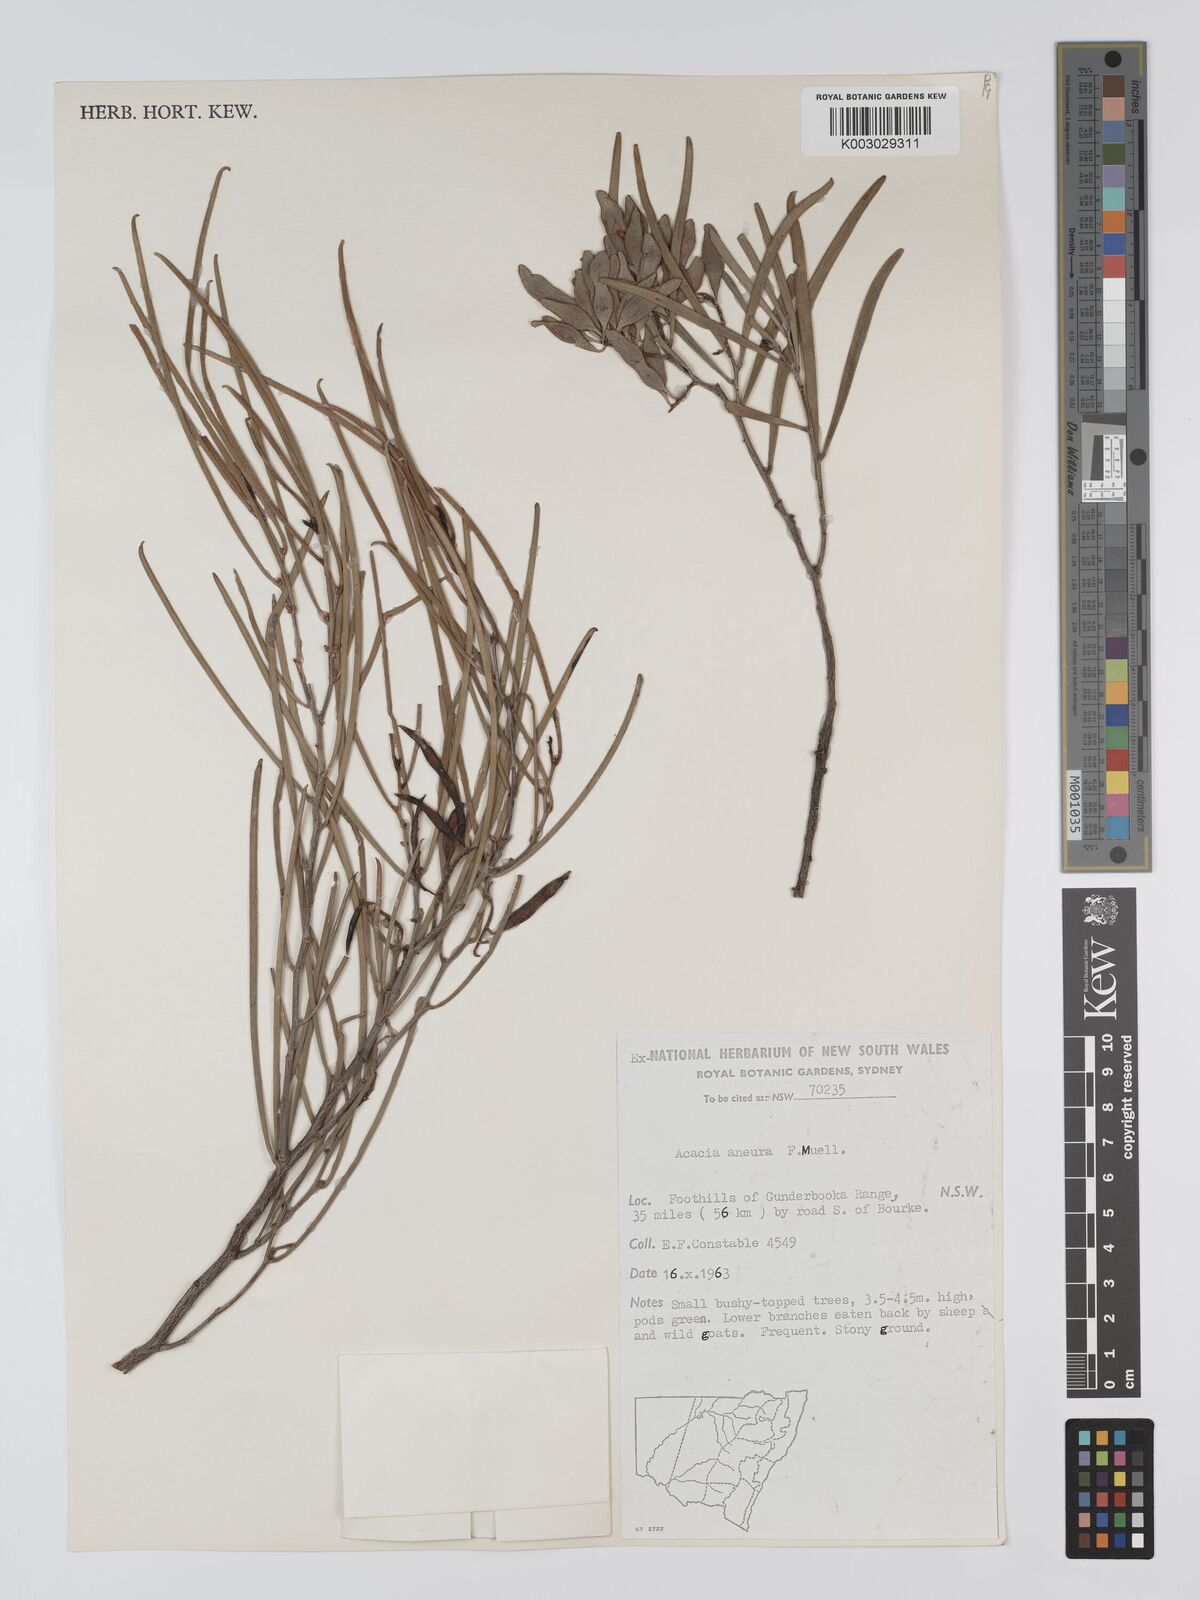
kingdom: Plantae
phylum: Tracheophyta
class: Magnoliopsida
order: Fabales
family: Fabaceae
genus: Acacia
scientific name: Acacia aneura
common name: Mulga
